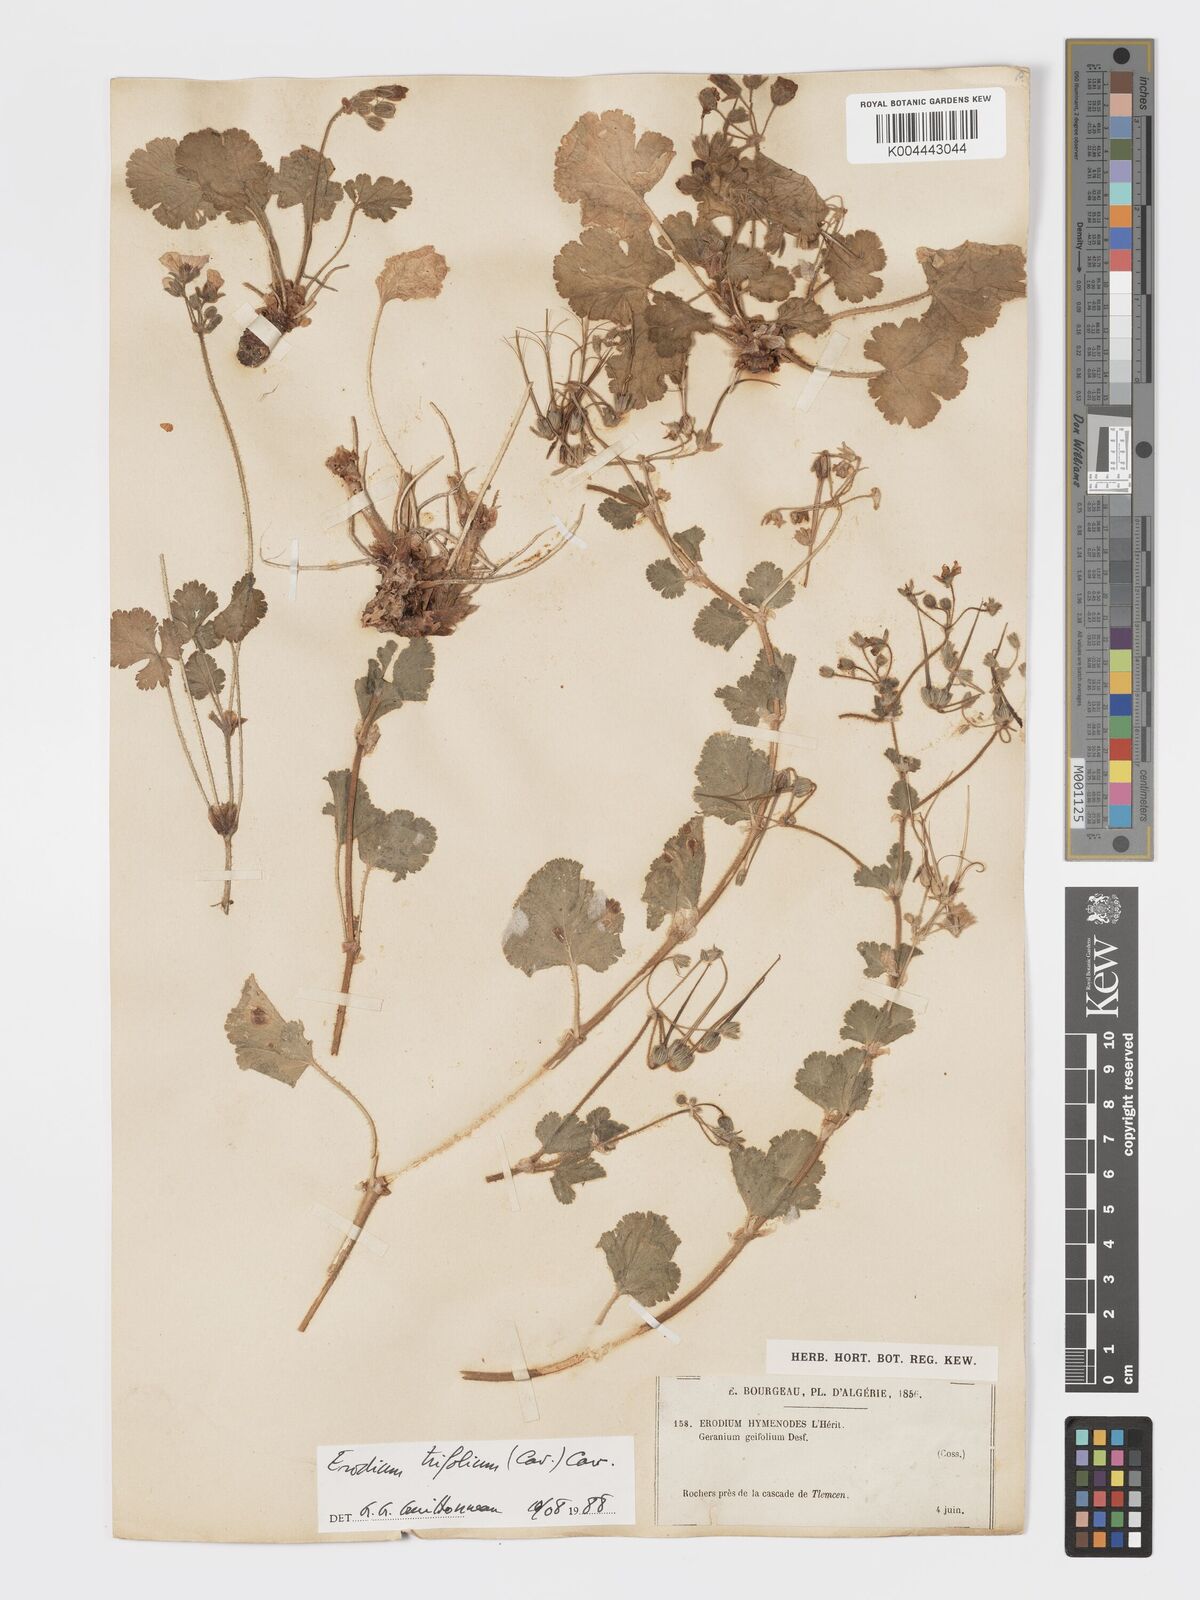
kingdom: Plantae
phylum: Tracheophyta
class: Magnoliopsida
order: Geraniales
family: Geraniaceae
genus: Erodium
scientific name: Erodium trifolium
